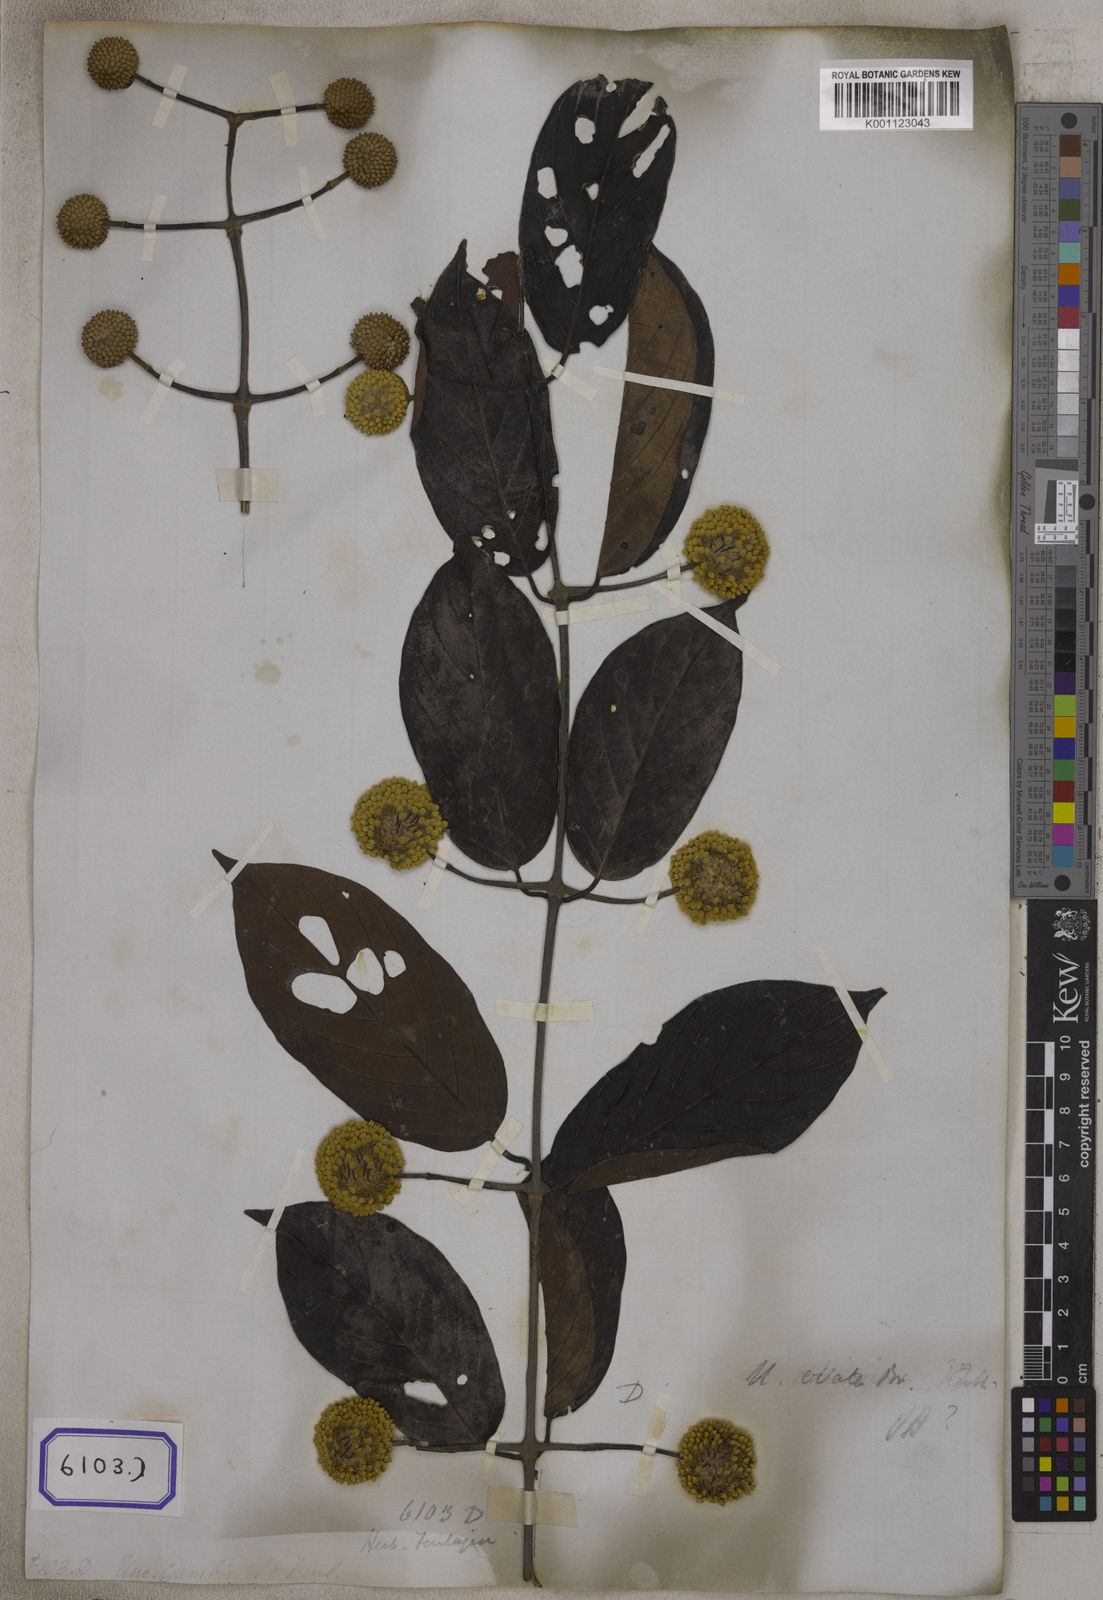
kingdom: Plantae
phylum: Tracheophyta
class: Magnoliopsida
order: Gentianales
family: Rubiaceae
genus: Uncaria
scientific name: Uncaria gambir
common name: Pale catechu
